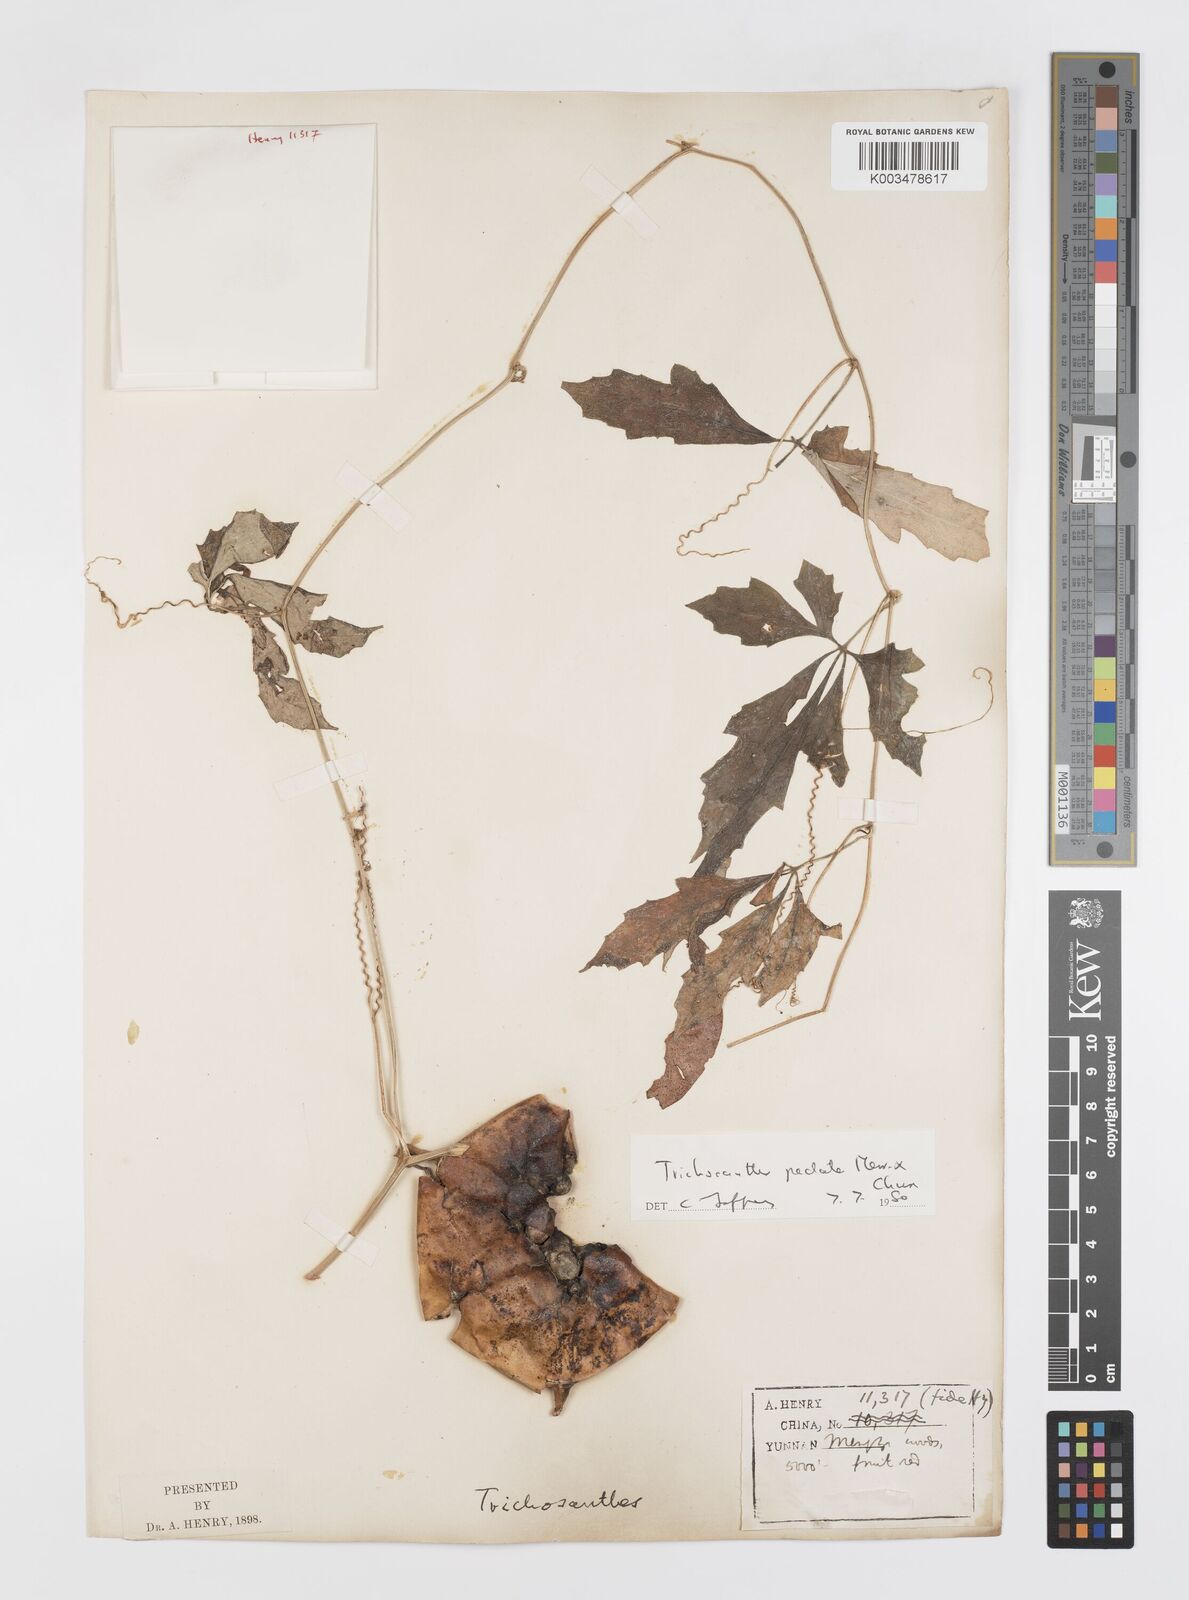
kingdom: Plantae
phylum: Tracheophyta
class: Magnoliopsida
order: Cucurbitales
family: Cucurbitaceae
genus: Trichosanthes
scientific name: Trichosanthes pedata
